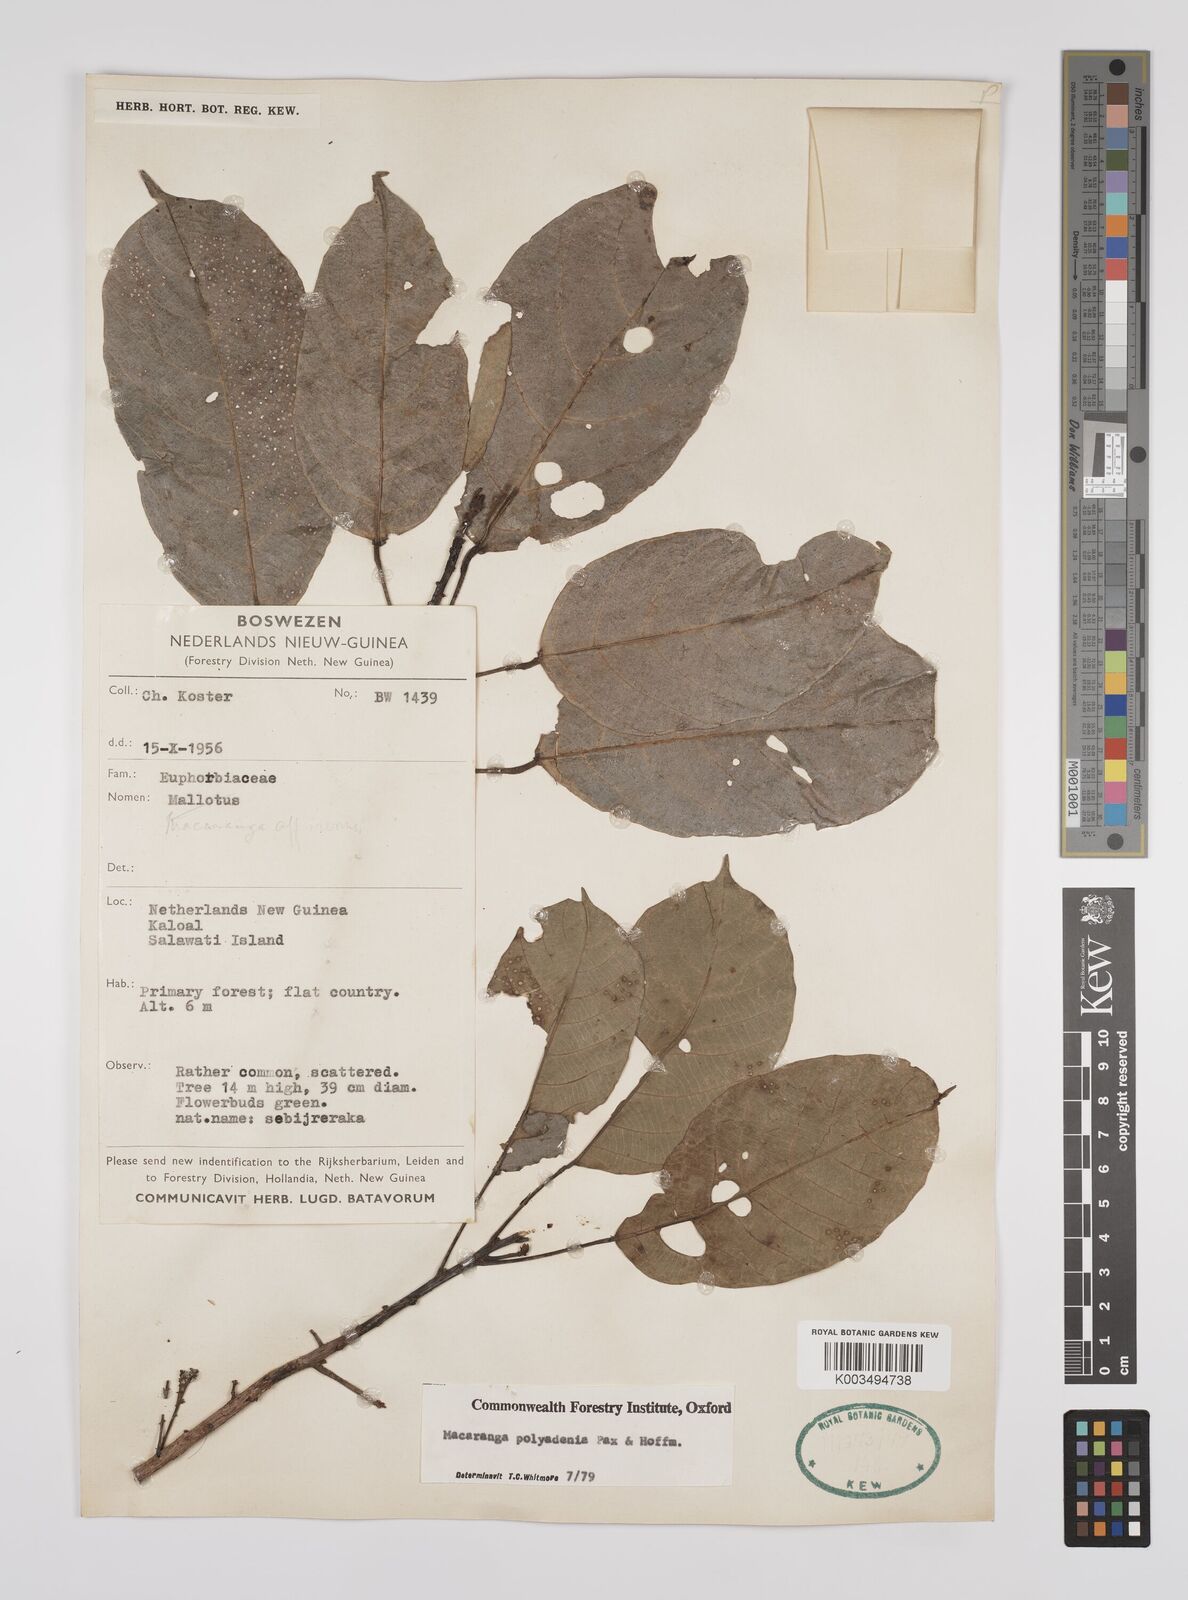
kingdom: Plantae
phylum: Tracheophyta
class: Magnoliopsida
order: Malpighiales
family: Euphorbiaceae
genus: Macaranga
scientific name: Macaranga polyadenia
